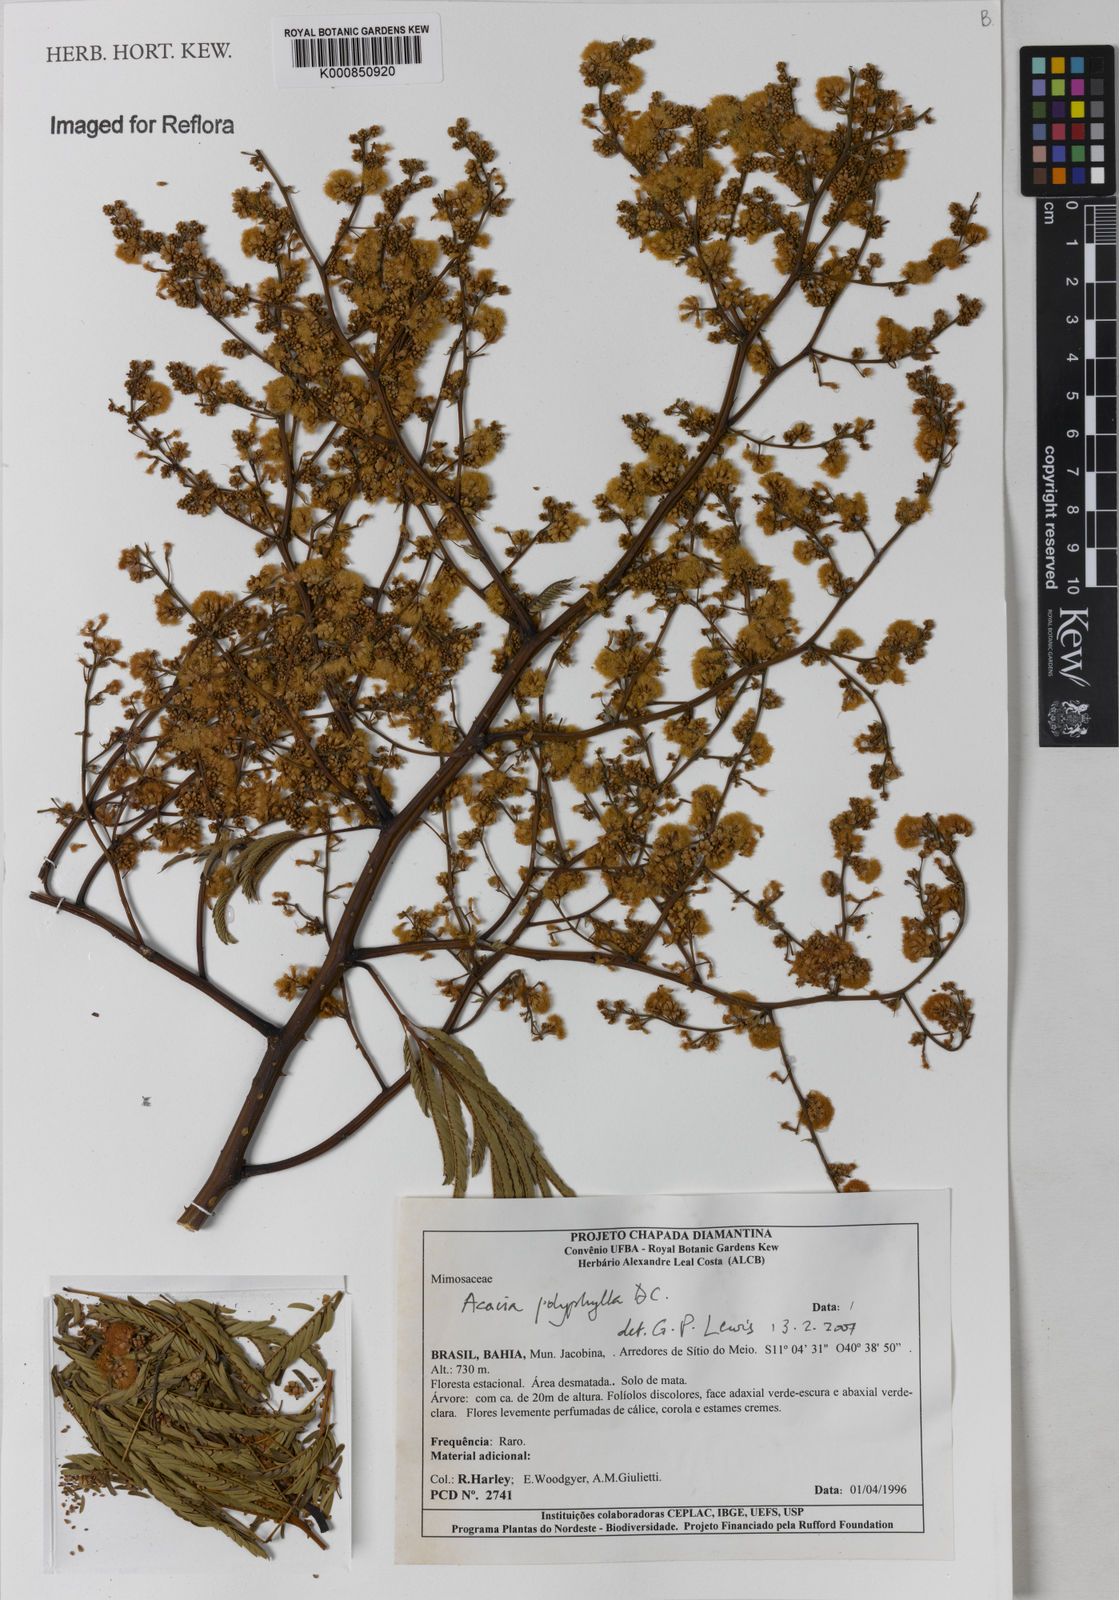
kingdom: Plantae
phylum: Tracheophyta
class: Magnoliopsida
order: Fabales
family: Fabaceae
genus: Senegalia
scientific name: Senegalia polyphylla
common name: White-tamarind
